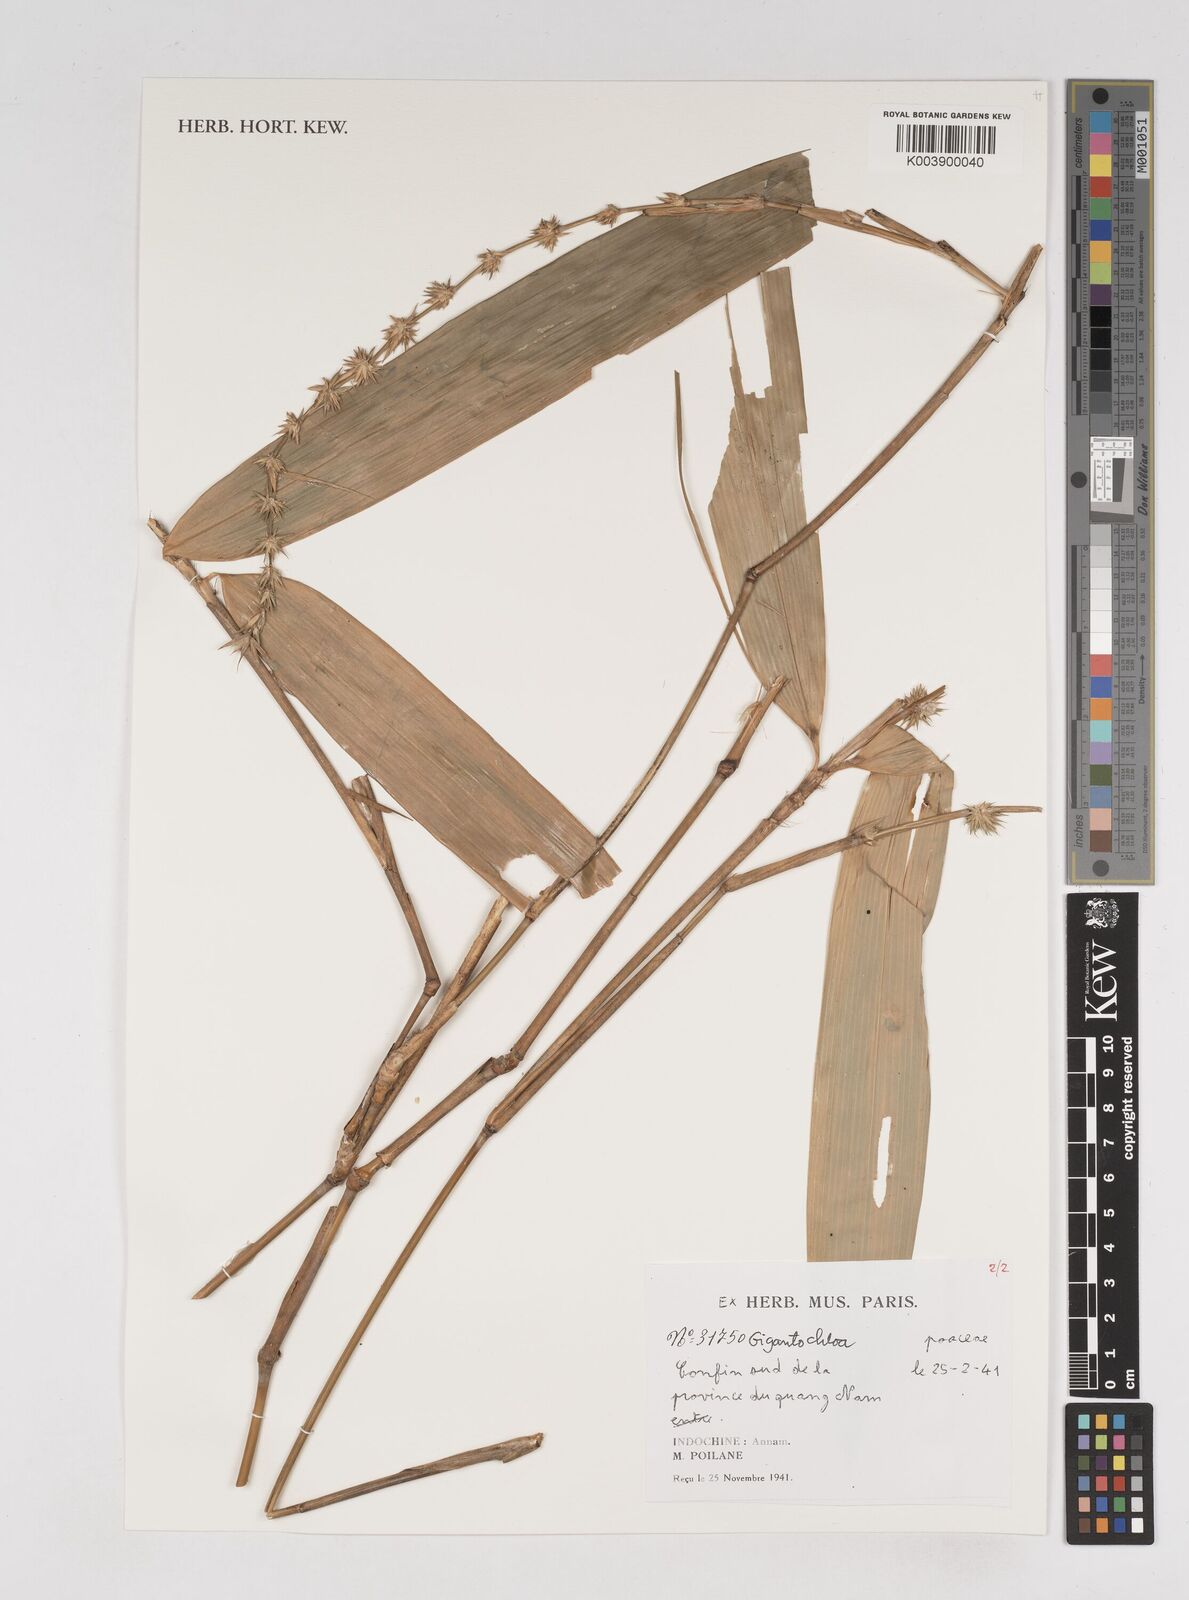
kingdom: Plantae
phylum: Tracheophyta
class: Liliopsida
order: Poales
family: Poaceae
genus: Gigantochloa
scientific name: Gigantochloa
